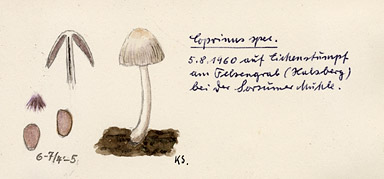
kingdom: Plantae
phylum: Tracheophyta
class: Magnoliopsida
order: Fagales
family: Fagaceae
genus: Quercus
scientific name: Quercus
